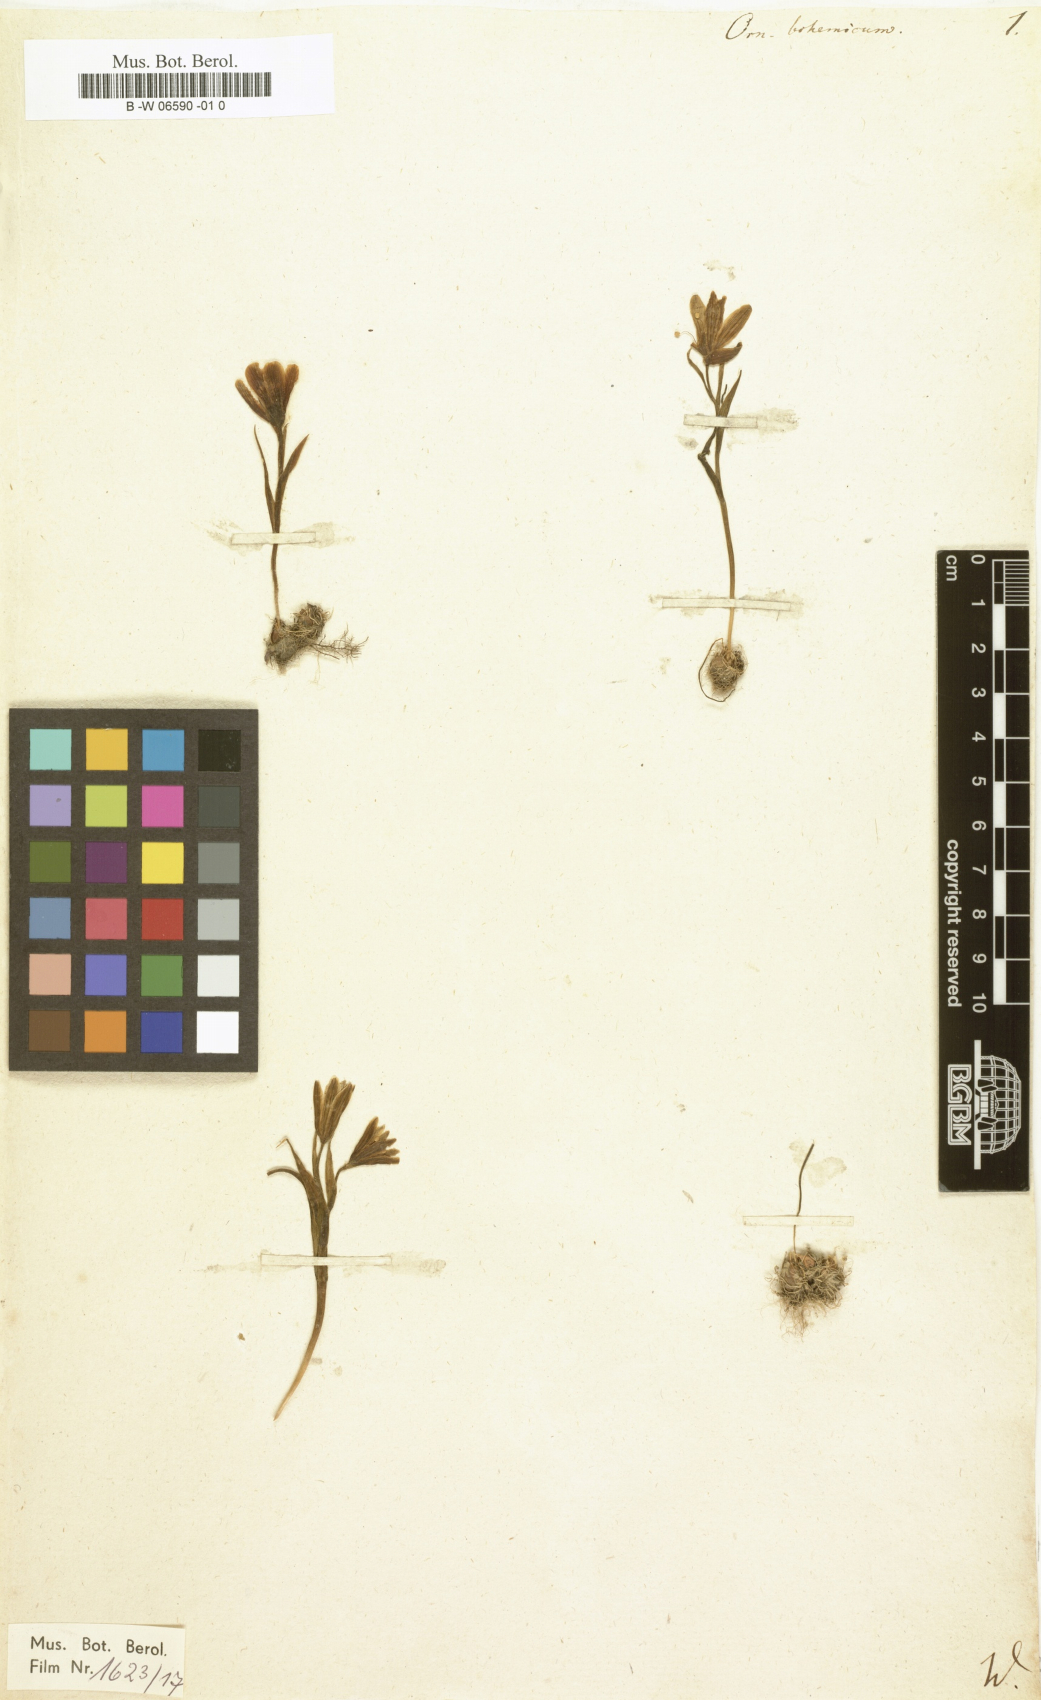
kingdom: Plantae
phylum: Tracheophyta
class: Liliopsida
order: Liliales
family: Liliaceae
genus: Gagea
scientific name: Gagea bohemica
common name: Early star-of-bethlehem
